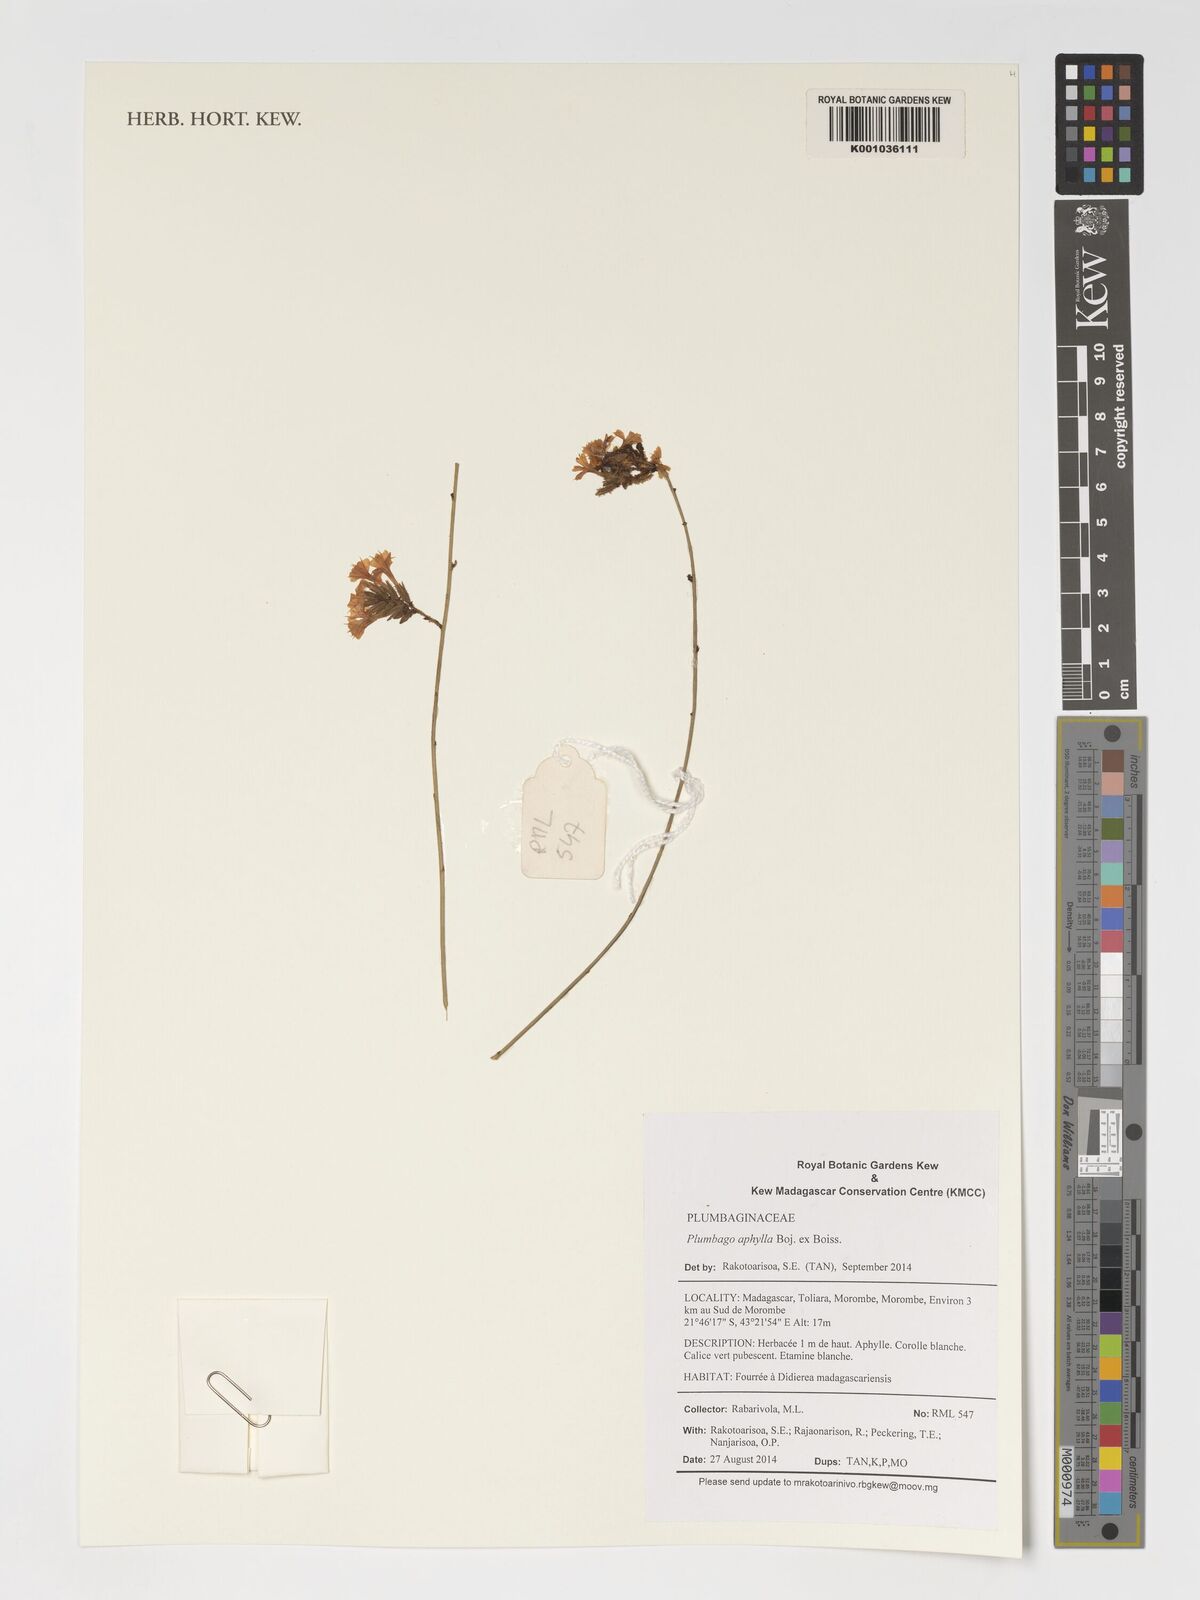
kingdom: Plantae
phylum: Tracheophyta
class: Magnoliopsida
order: Caryophyllales
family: Plumbaginaceae
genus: Plumbago
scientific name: Plumbago aphylla
